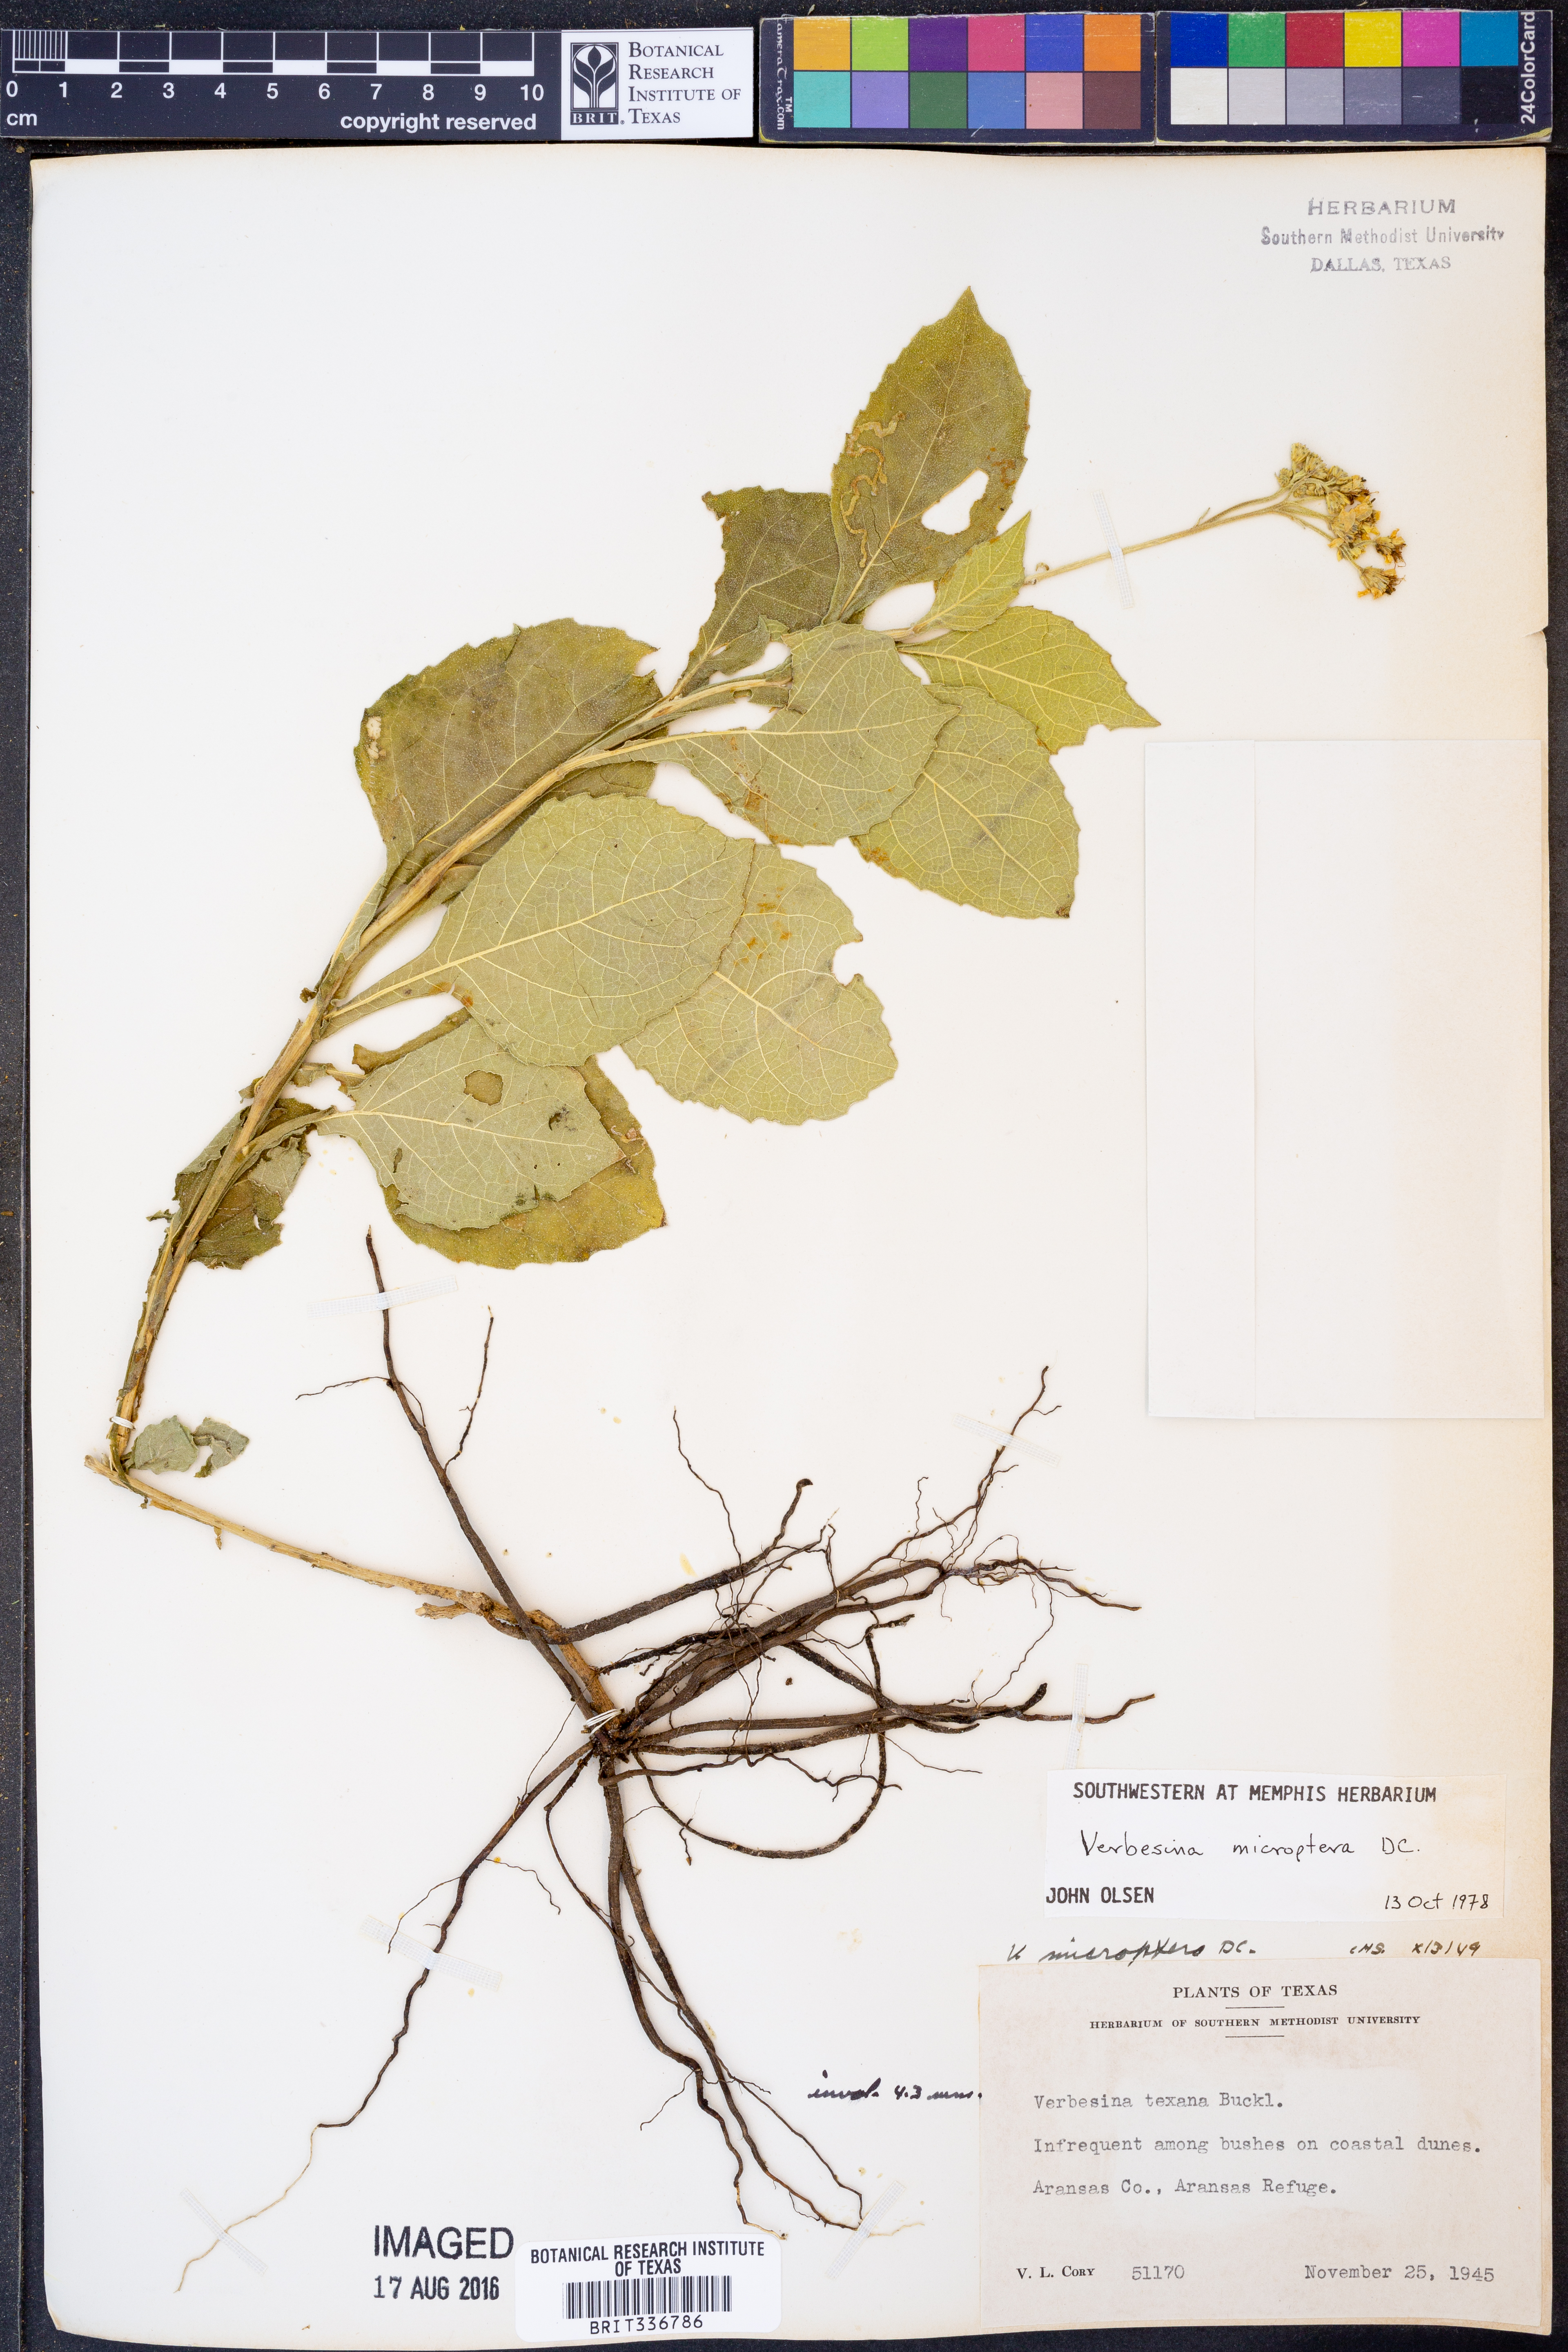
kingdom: Plantae
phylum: Tracheophyta
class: Magnoliopsida
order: Asterales
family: Asteraceae
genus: Verbesina
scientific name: Verbesina encelioides
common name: Golden crownbeard
